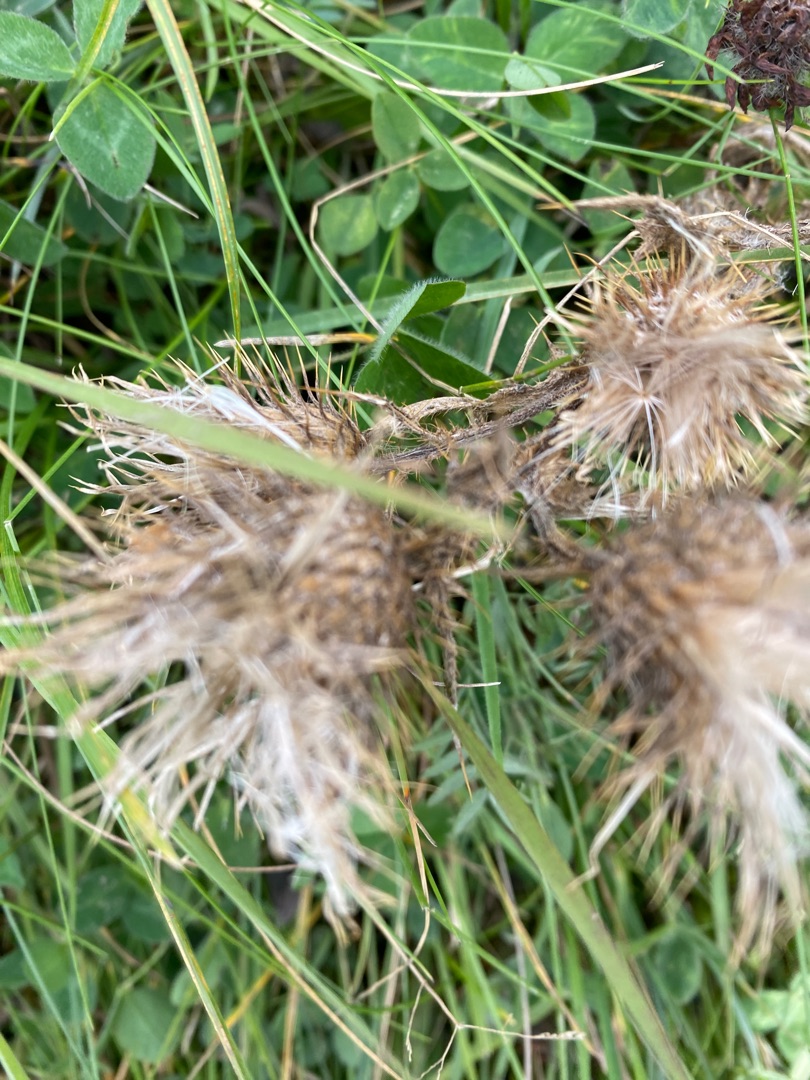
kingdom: Plantae
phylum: Tracheophyta
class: Magnoliopsida
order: Asterales
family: Asteraceae
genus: Cirsium
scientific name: Cirsium vulgare
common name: Horse-tidsel
